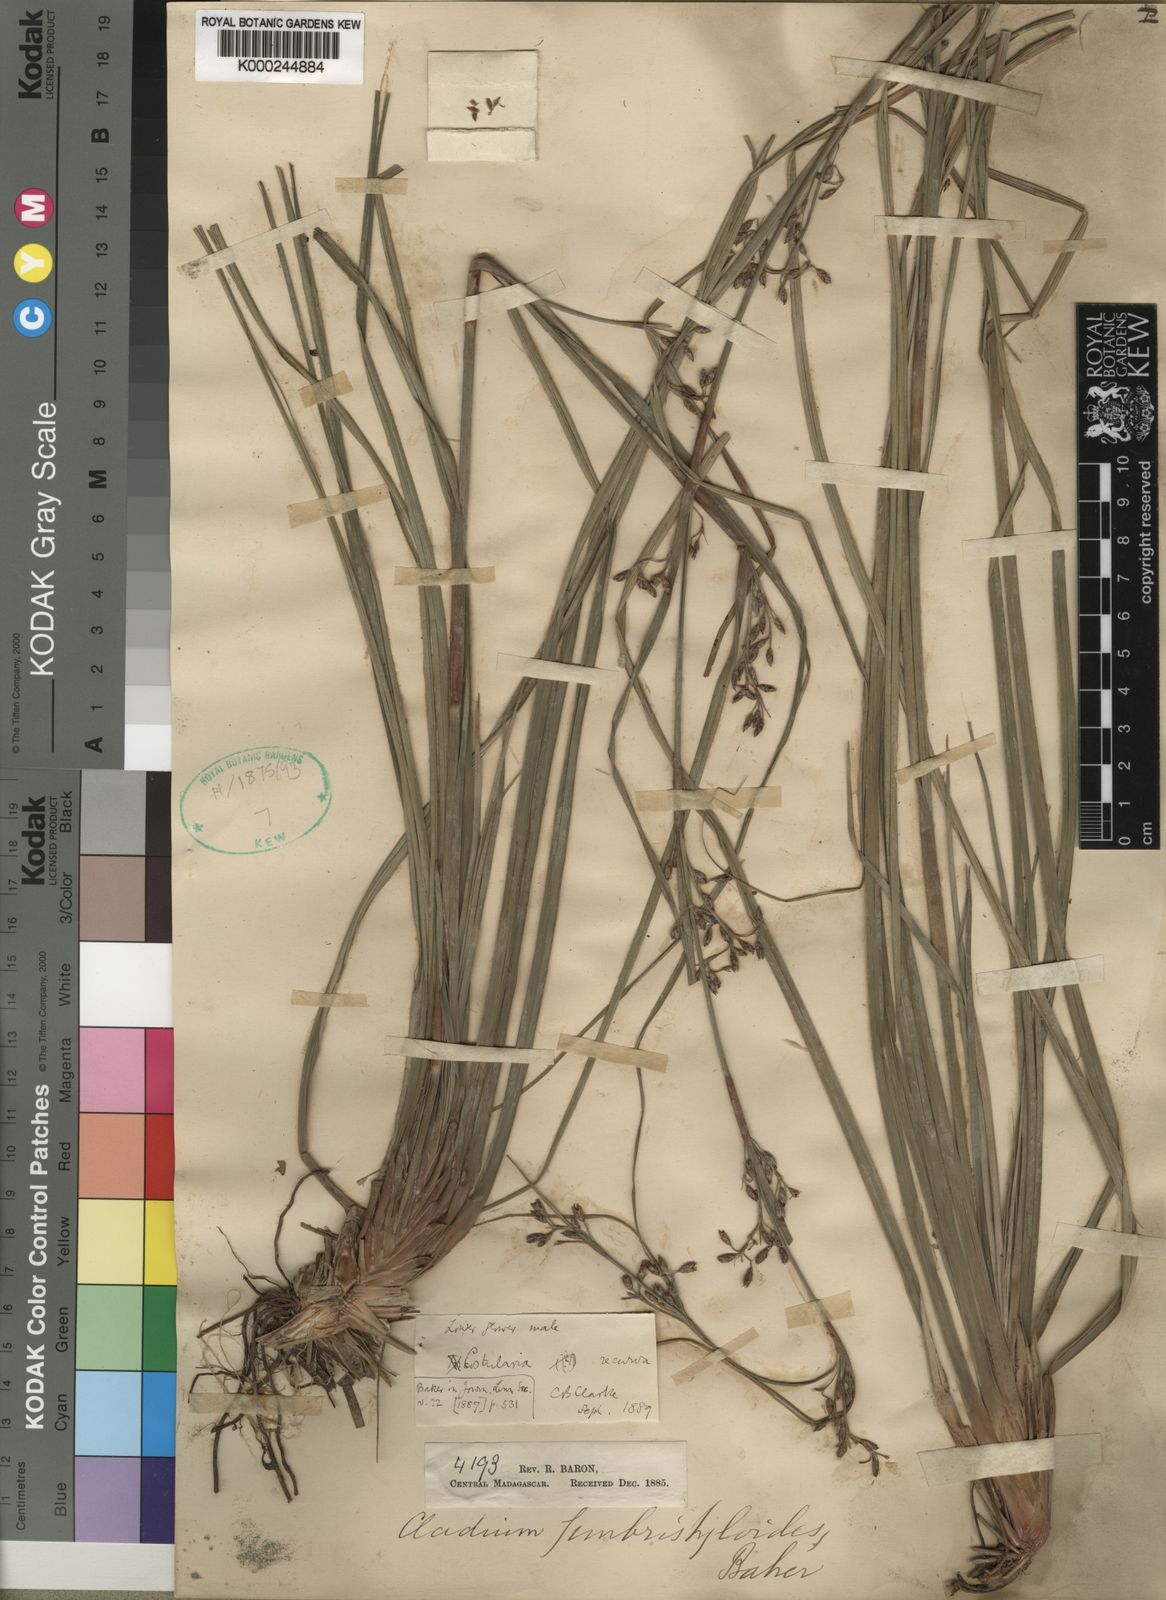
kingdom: Plantae
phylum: Tracheophyta
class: Liliopsida
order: Poales
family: Cyperaceae
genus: Costularia
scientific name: Costularia leucocarpa
